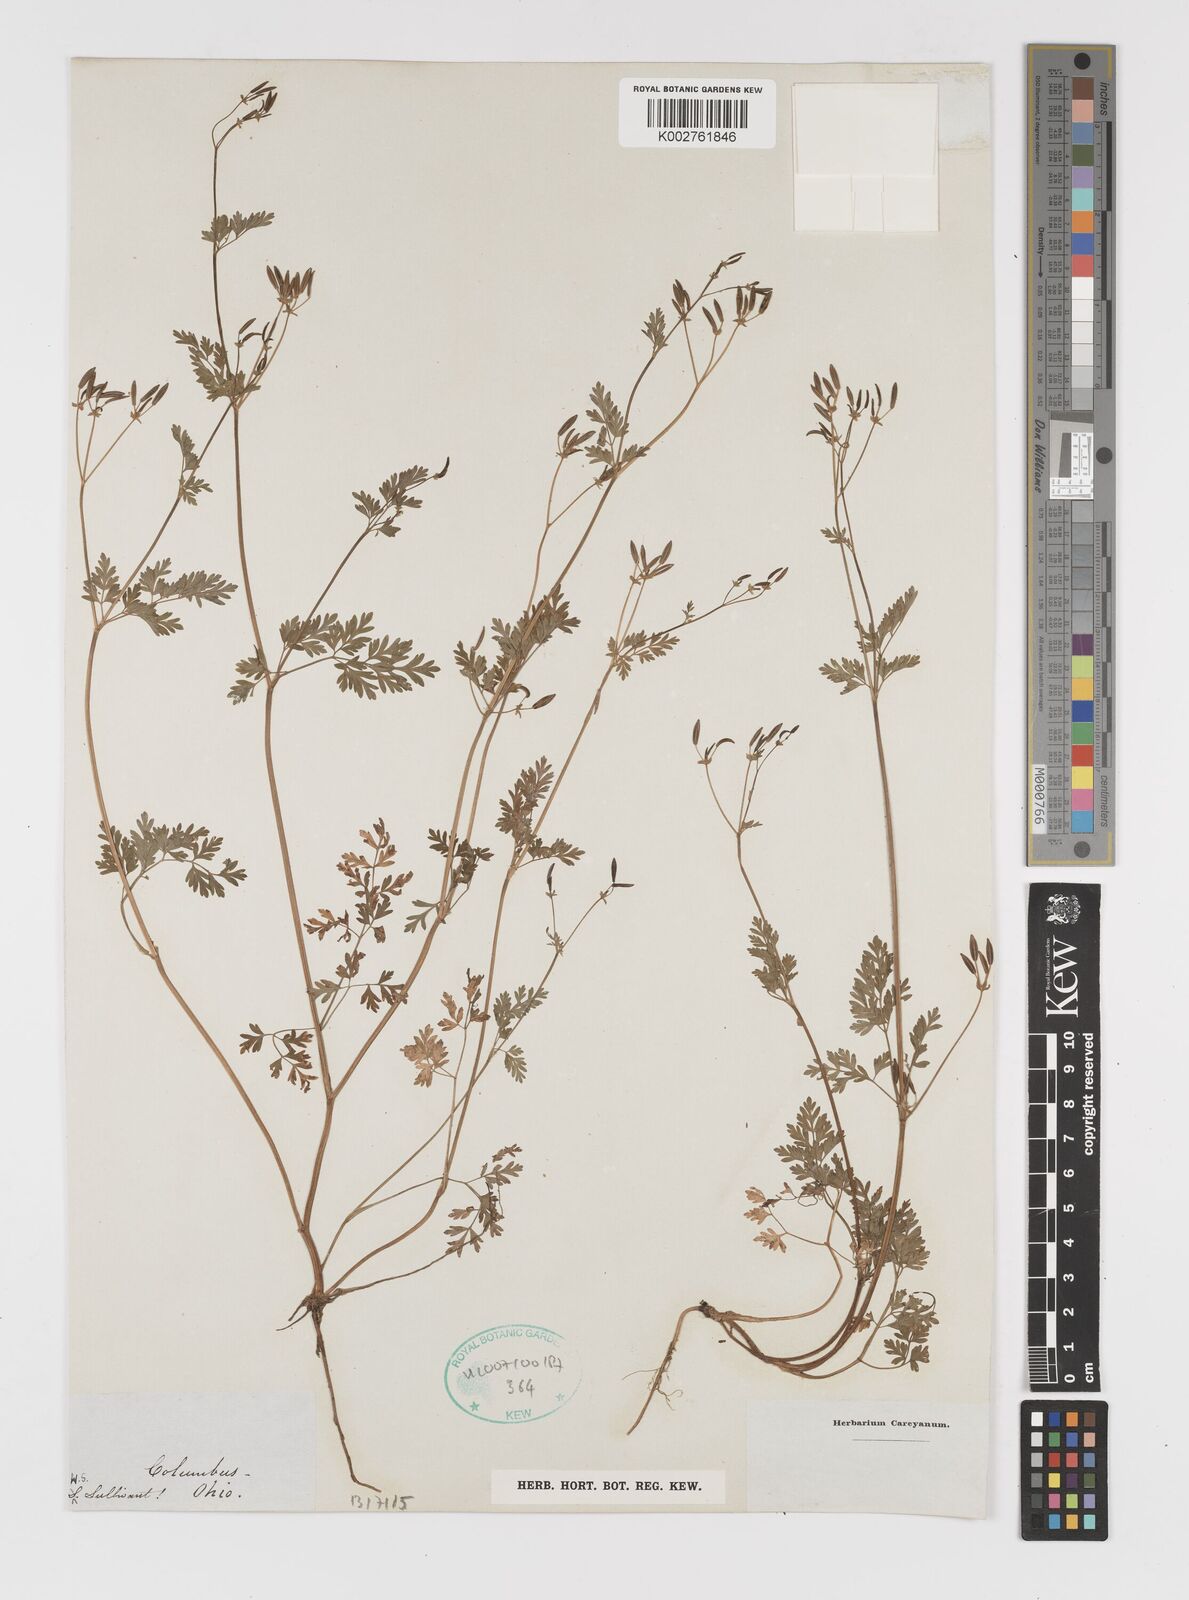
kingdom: Plantae
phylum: Tracheophyta
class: Magnoliopsida
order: Apiales
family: Apiaceae
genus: Chaerophyllum
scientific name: Chaerophyllum procumbens
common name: Spreading chervil
